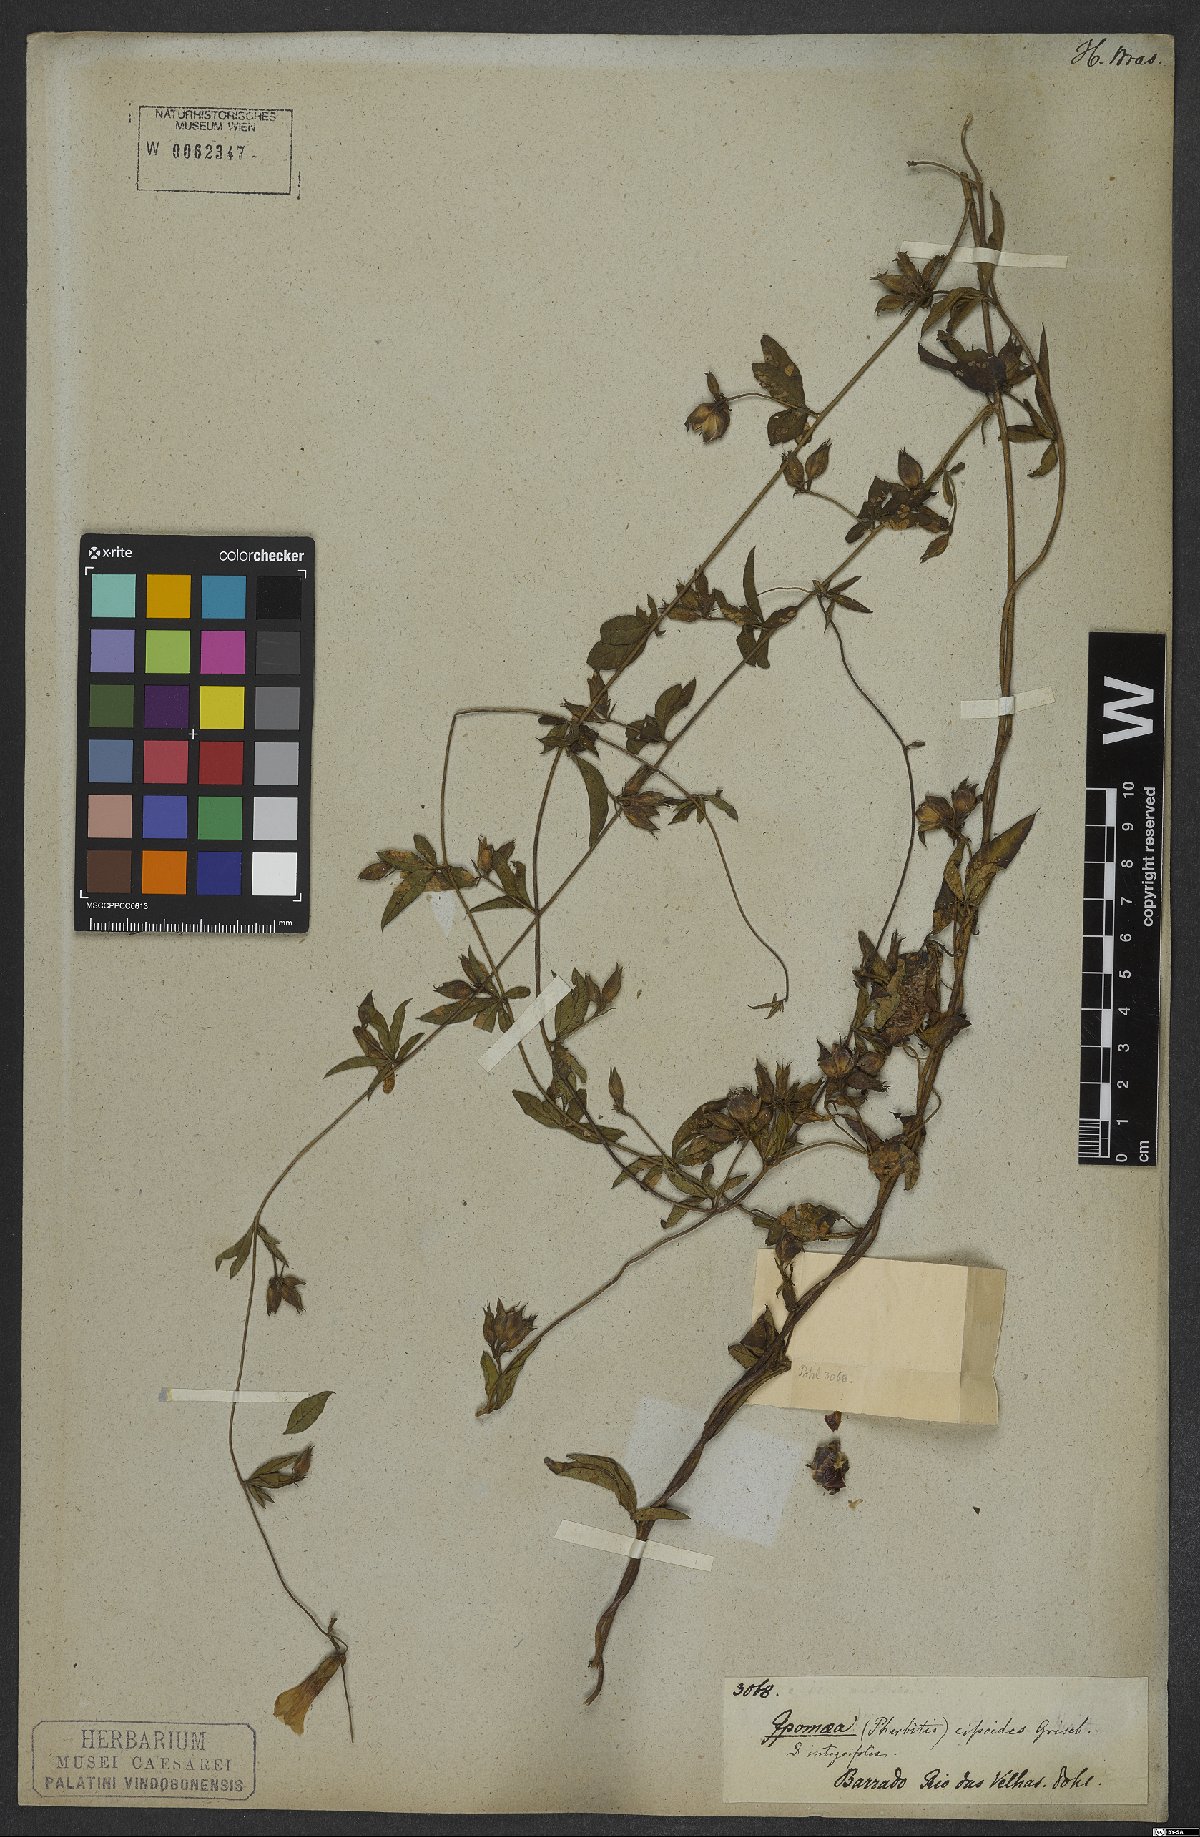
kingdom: Plantae
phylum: Tracheophyta
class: Magnoliopsida
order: Solanales
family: Convolvulaceae
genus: Distimake
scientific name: Distimake cissoides
